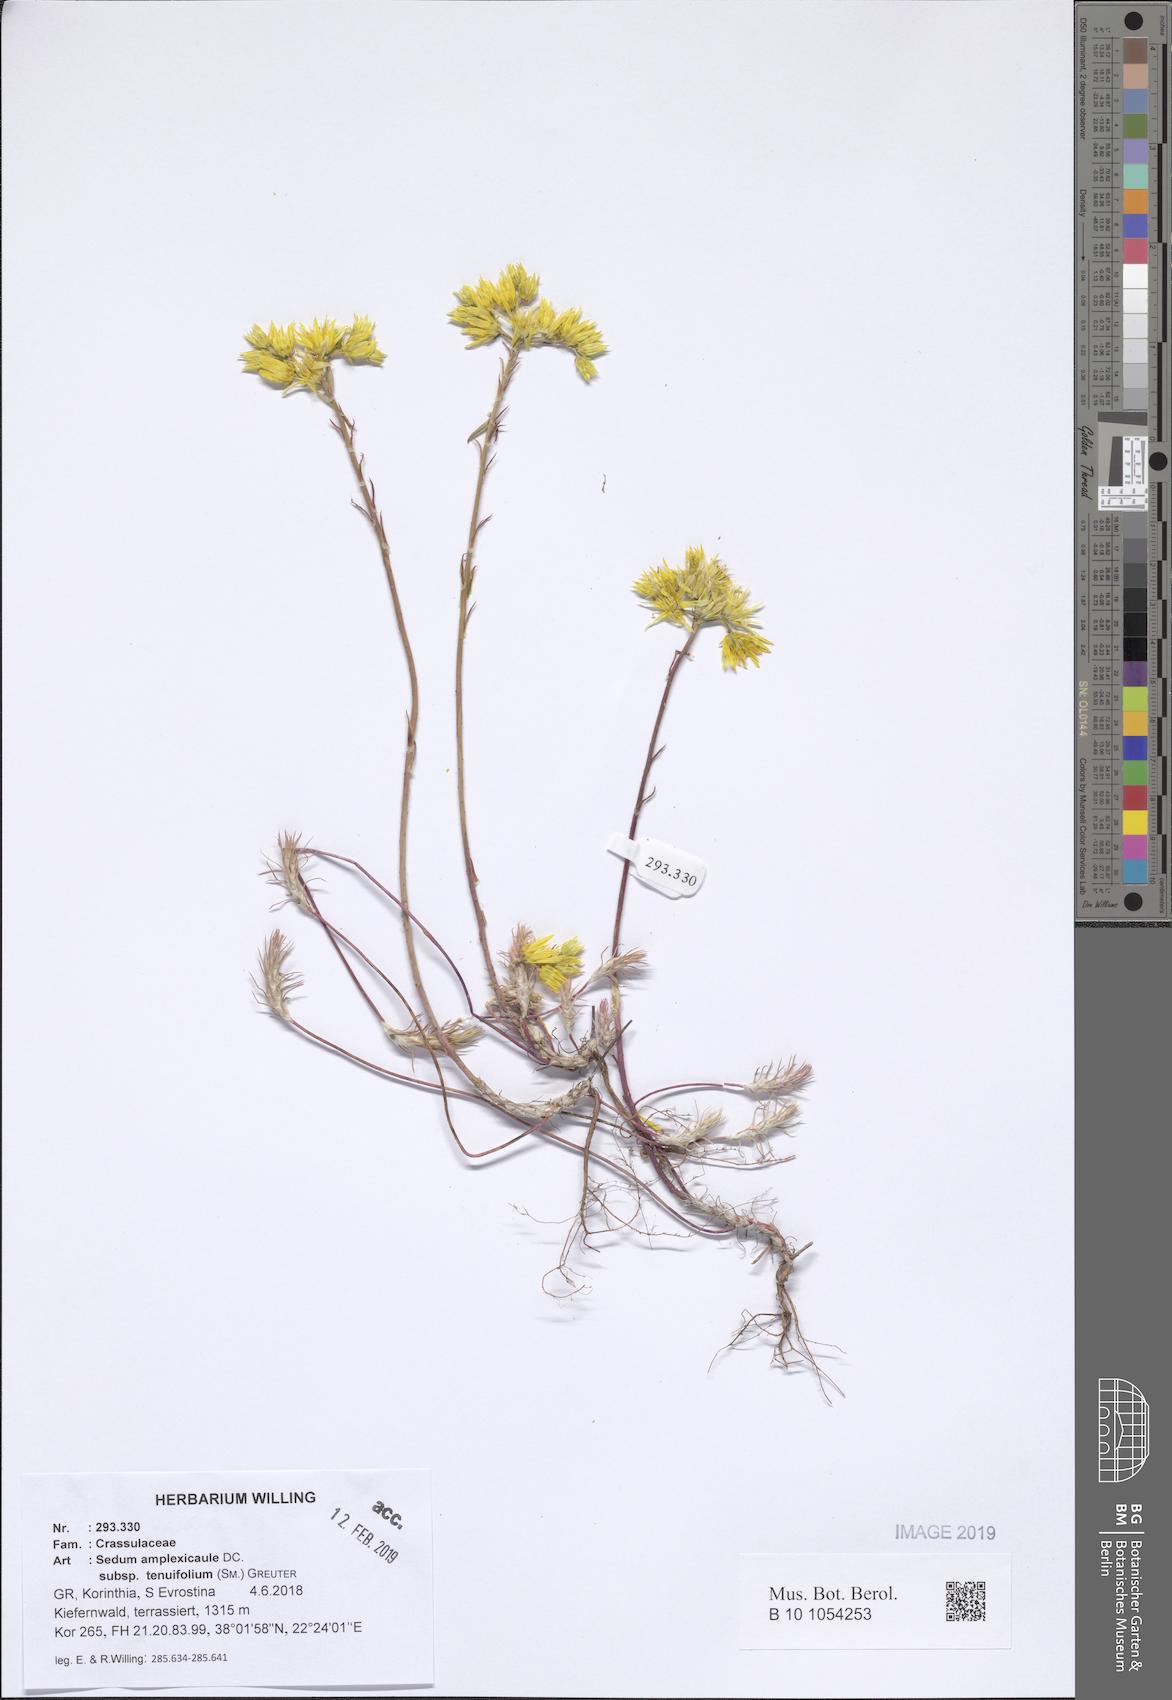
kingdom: Plantae
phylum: Tracheophyta
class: Magnoliopsida
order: Saxifragales
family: Crassulaceae
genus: Petrosedum
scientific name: Petrosedum tenuifolium
